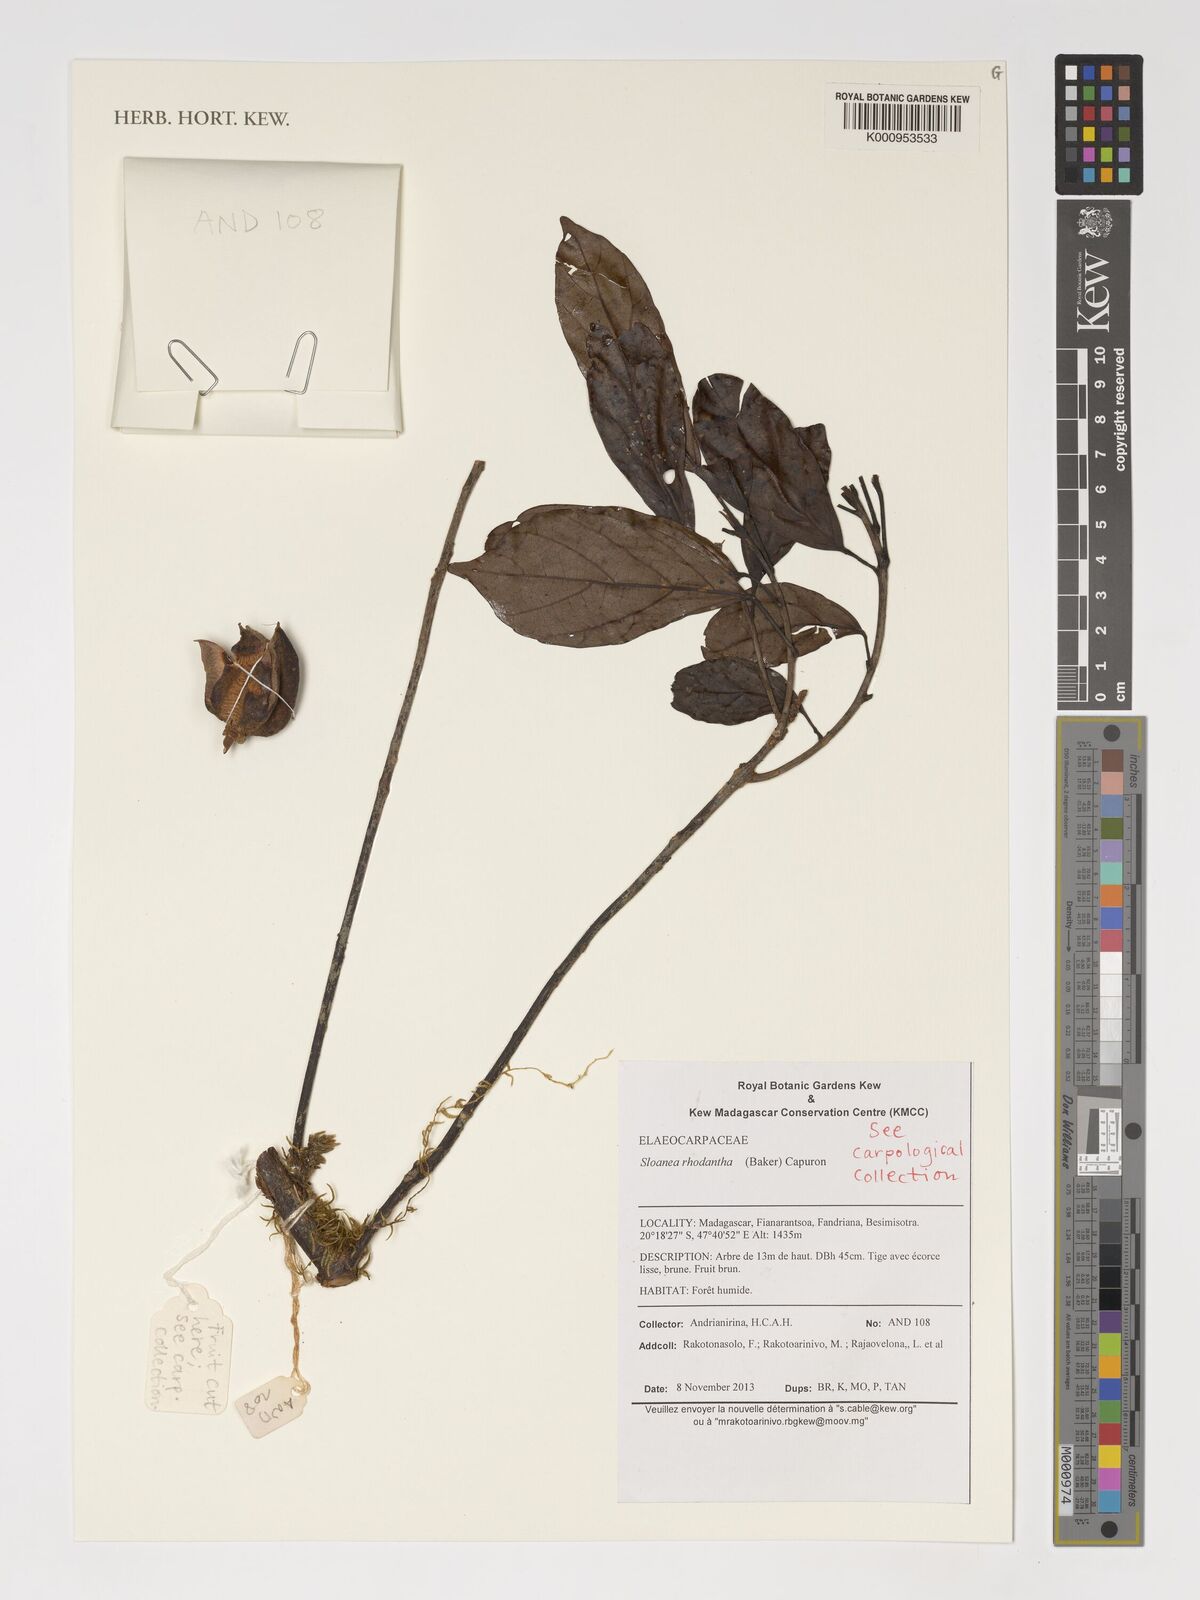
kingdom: Plantae
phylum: Tracheophyta
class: Magnoliopsida
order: Oxalidales
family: Elaeocarpaceae
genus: Sloanea
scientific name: Sloanea rhodantha
